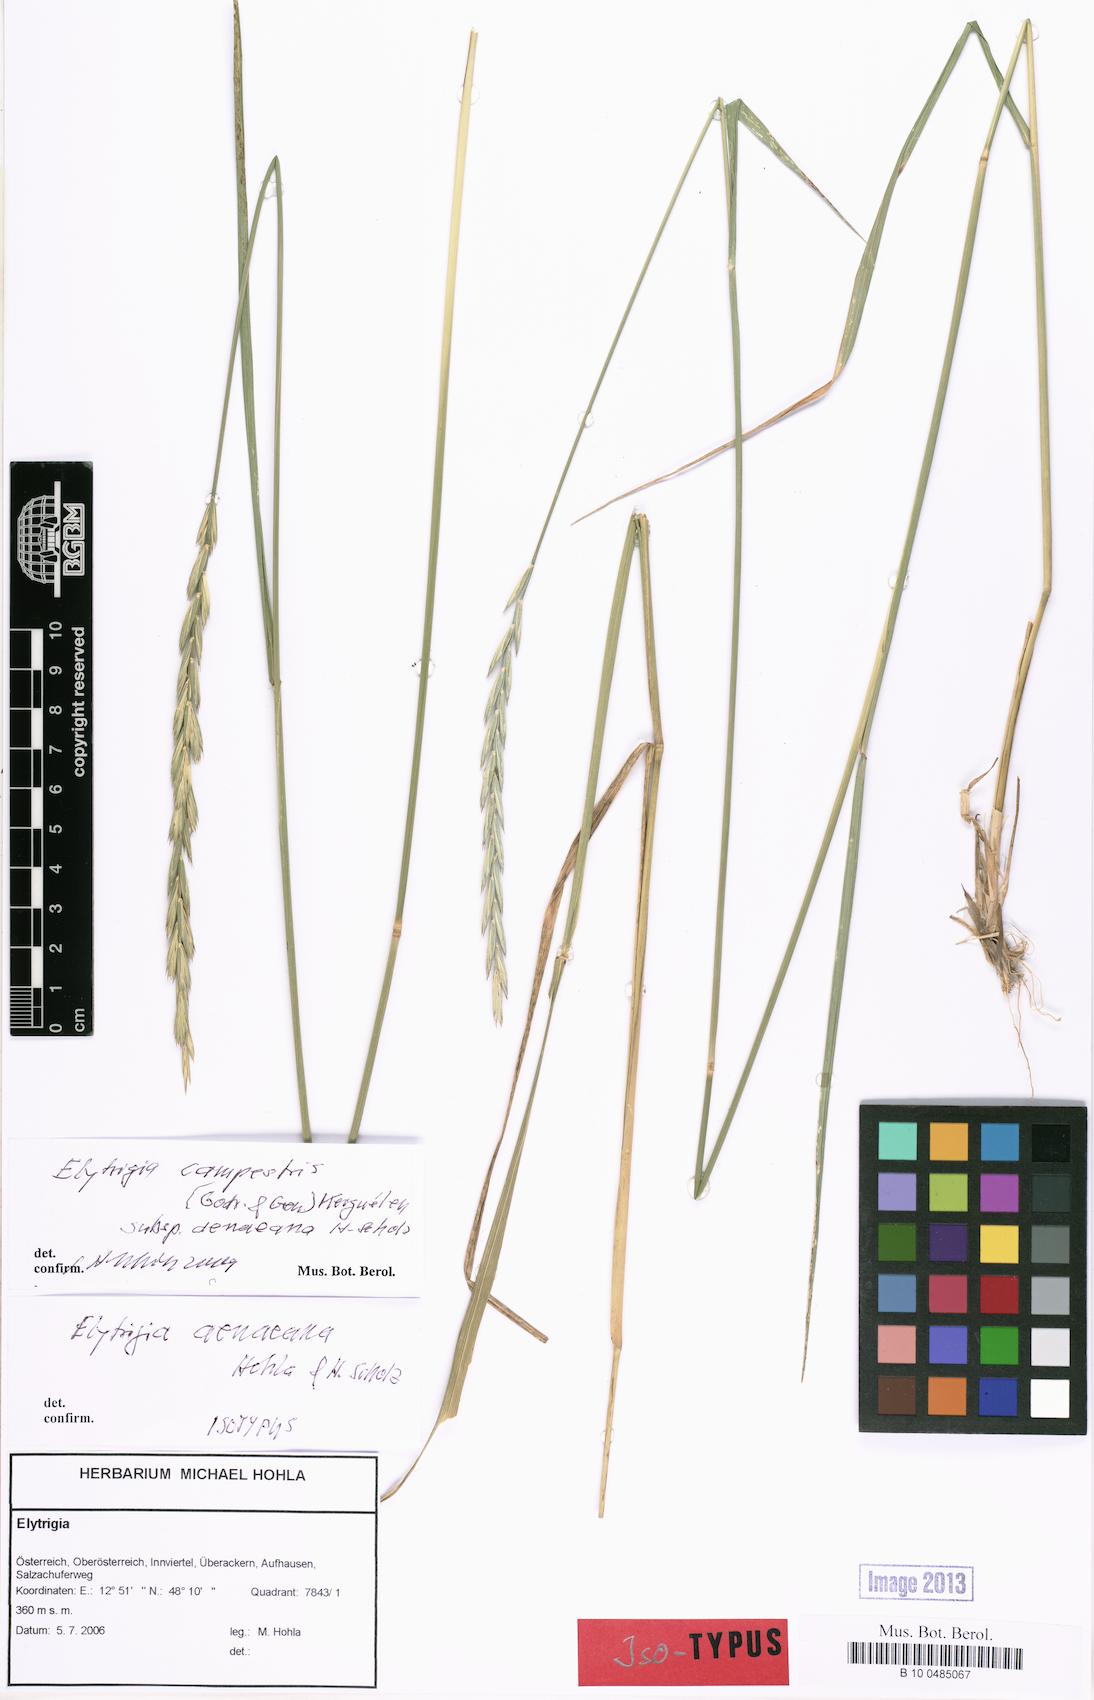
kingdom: Plantae
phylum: Tracheophyta
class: Liliopsida
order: Poales
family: Poaceae
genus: Elymus
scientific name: Elymus pungens
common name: Sea couch
